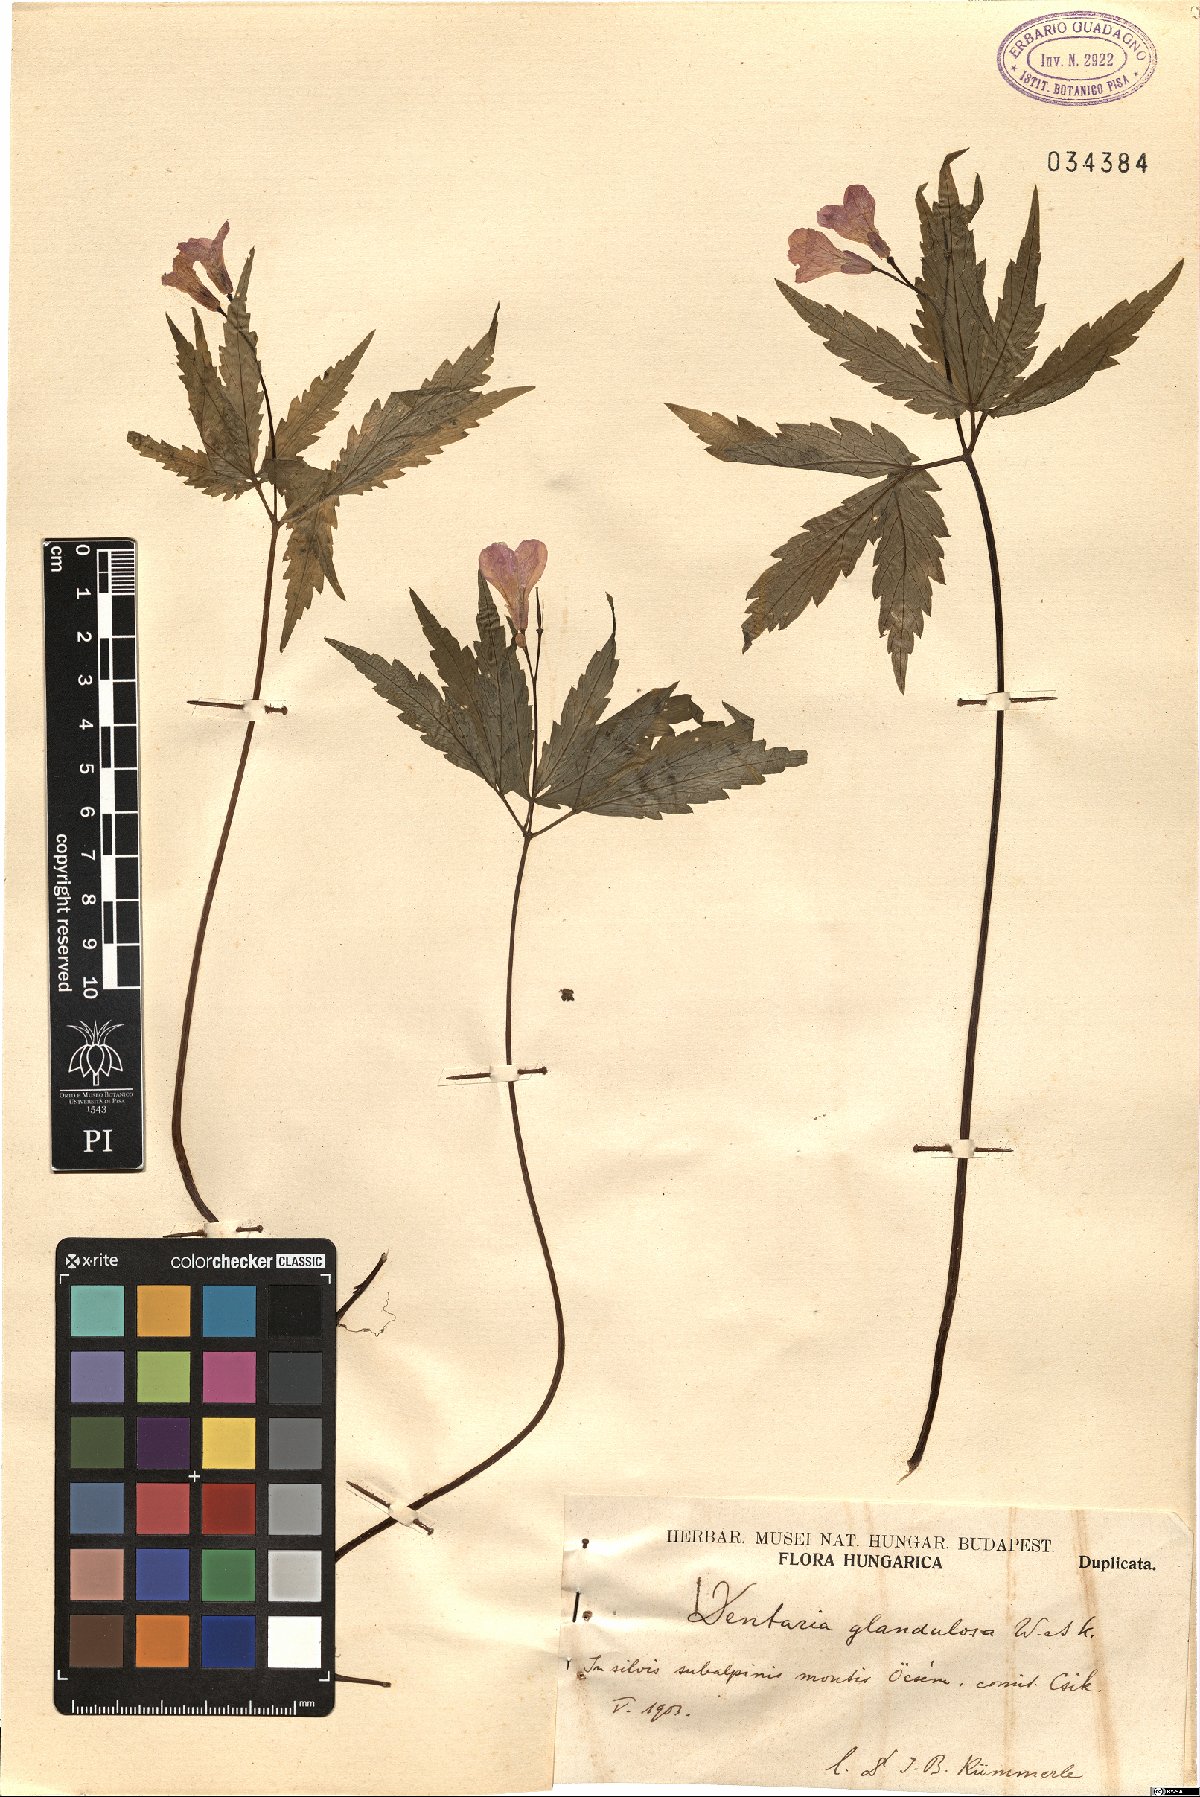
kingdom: Plantae
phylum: Tracheophyta
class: Magnoliopsida
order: Brassicales
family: Brassicaceae
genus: Cardamine
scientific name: Cardamine glanduligera
